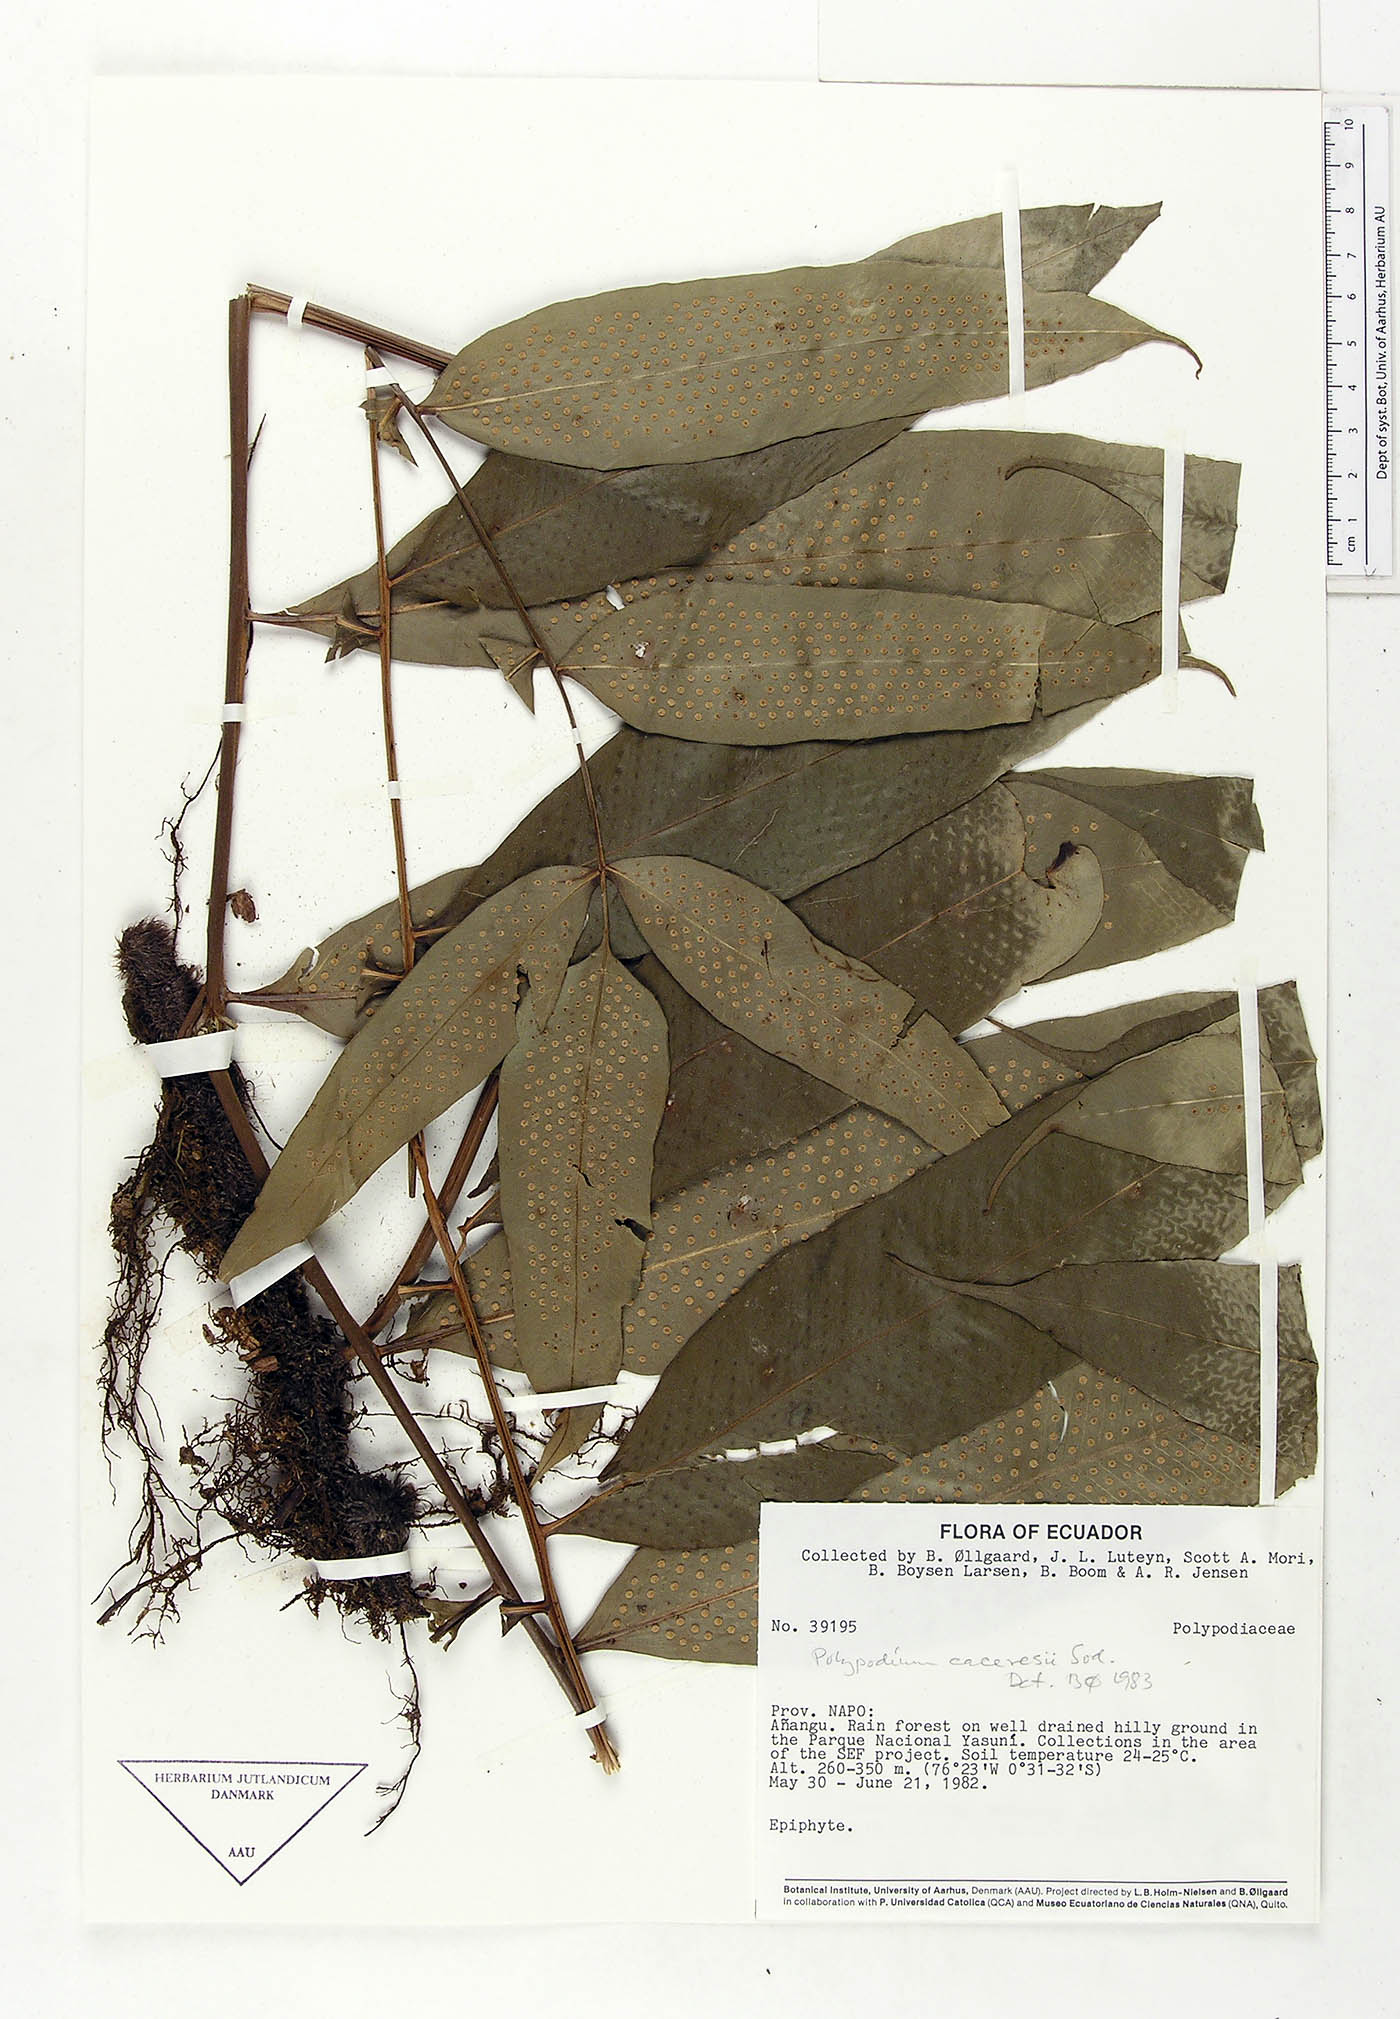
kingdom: Plantae
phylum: Tracheophyta
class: Polypodiopsida
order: Polypodiales
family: Polypodiaceae
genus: Serpocaulon
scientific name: Serpocaulon articulatum
